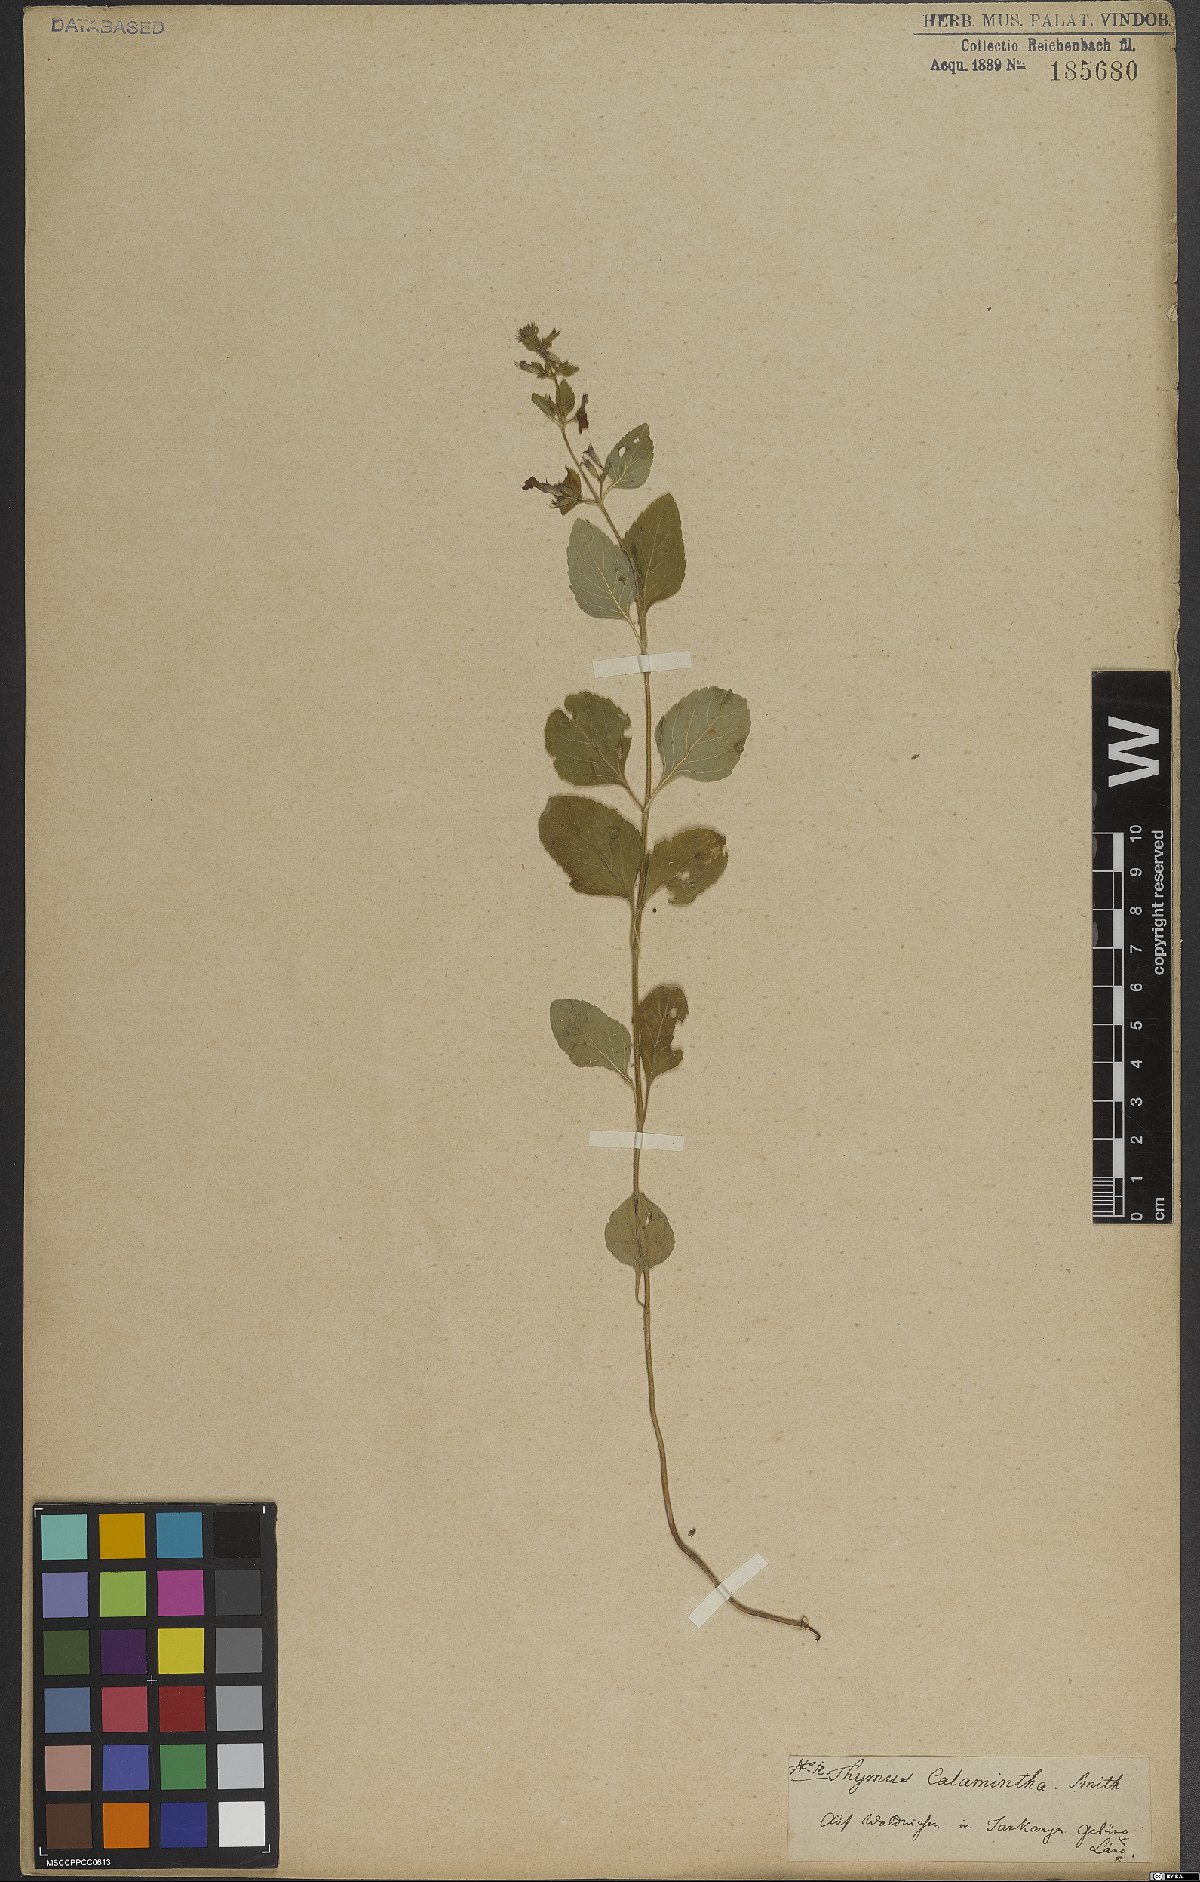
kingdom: Plantae
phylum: Tracheophyta
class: Magnoliopsida
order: Lamiales
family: Lamiaceae
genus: Clinopodium
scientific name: Clinopodium menthifolium
